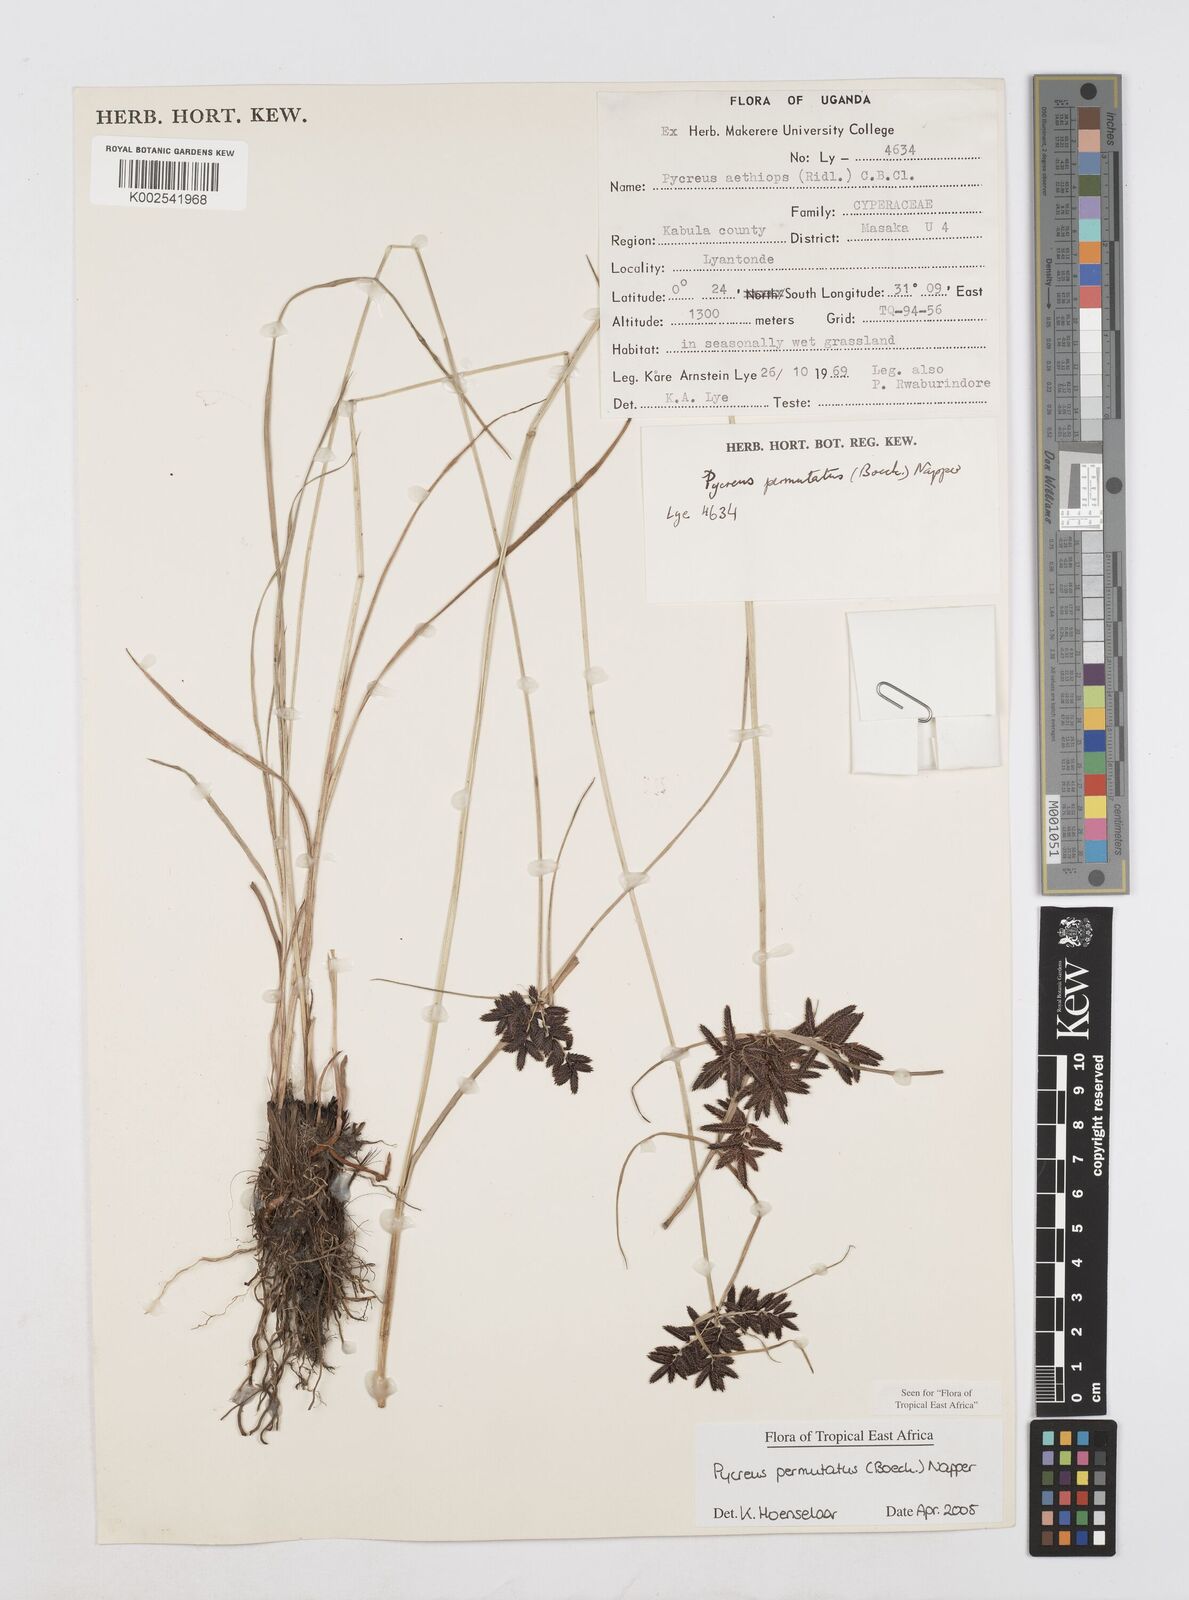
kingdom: Plantae
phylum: Tracheophyta
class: Liliopsida
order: Poales
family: Cyperaceae
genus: Cyperus
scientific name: Cyperus nigricans
